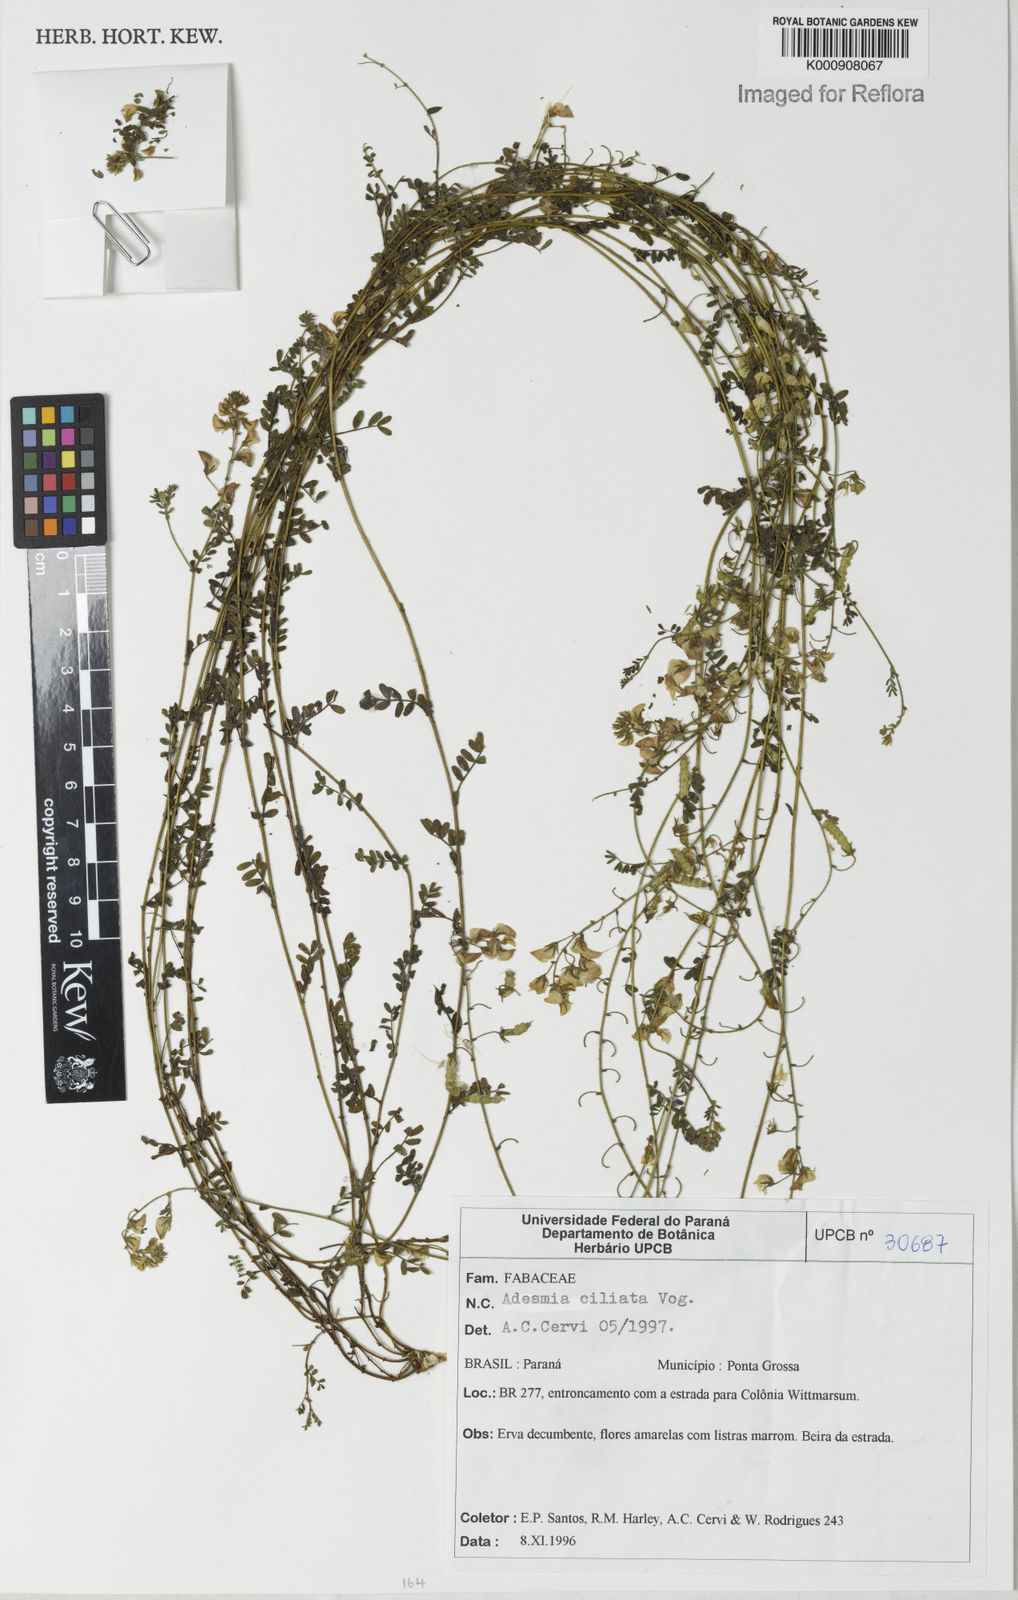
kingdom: Plantae
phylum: Tracheophyta
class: Magnoliopsida
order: Fabales
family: Fabaceae
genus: Adesmia
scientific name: Adesmia ciliata
